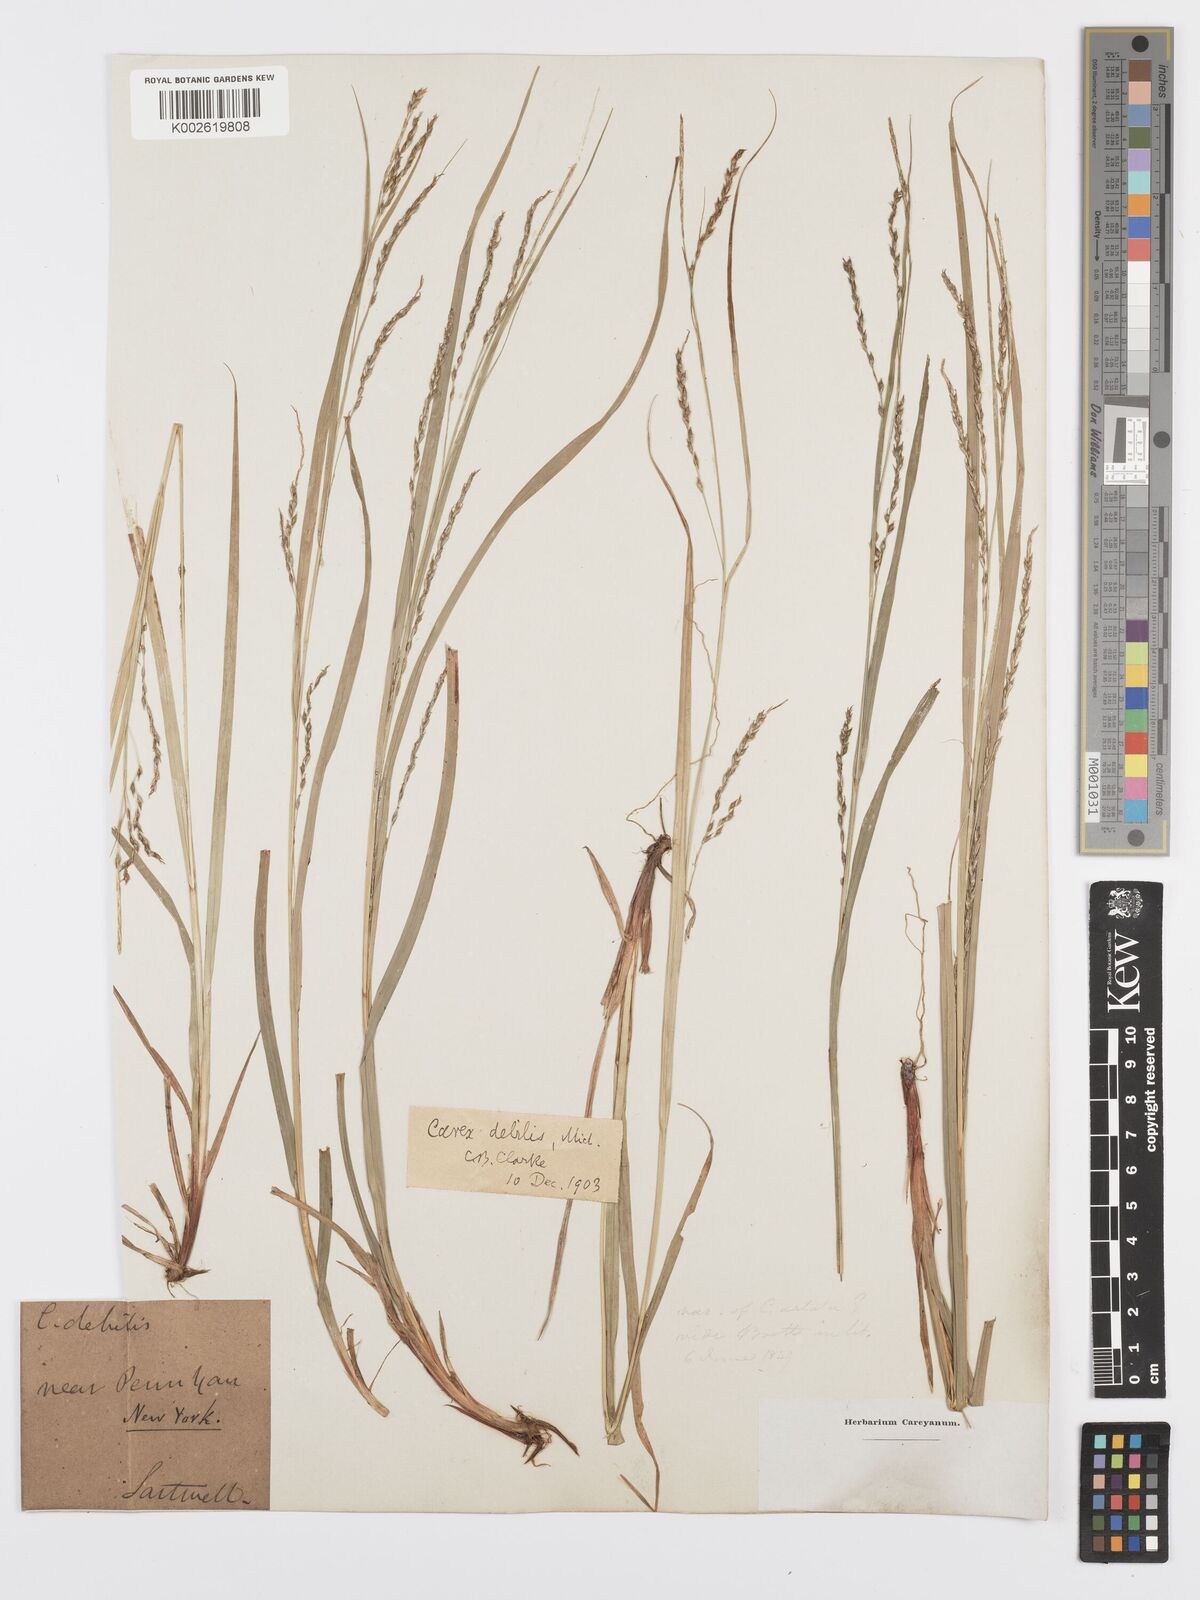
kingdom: Plantae
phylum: Tracheophyta
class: Liliopsida
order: Poales
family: Cyperaceae
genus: Carex
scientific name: Carex debilis
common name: White-edge sedge
